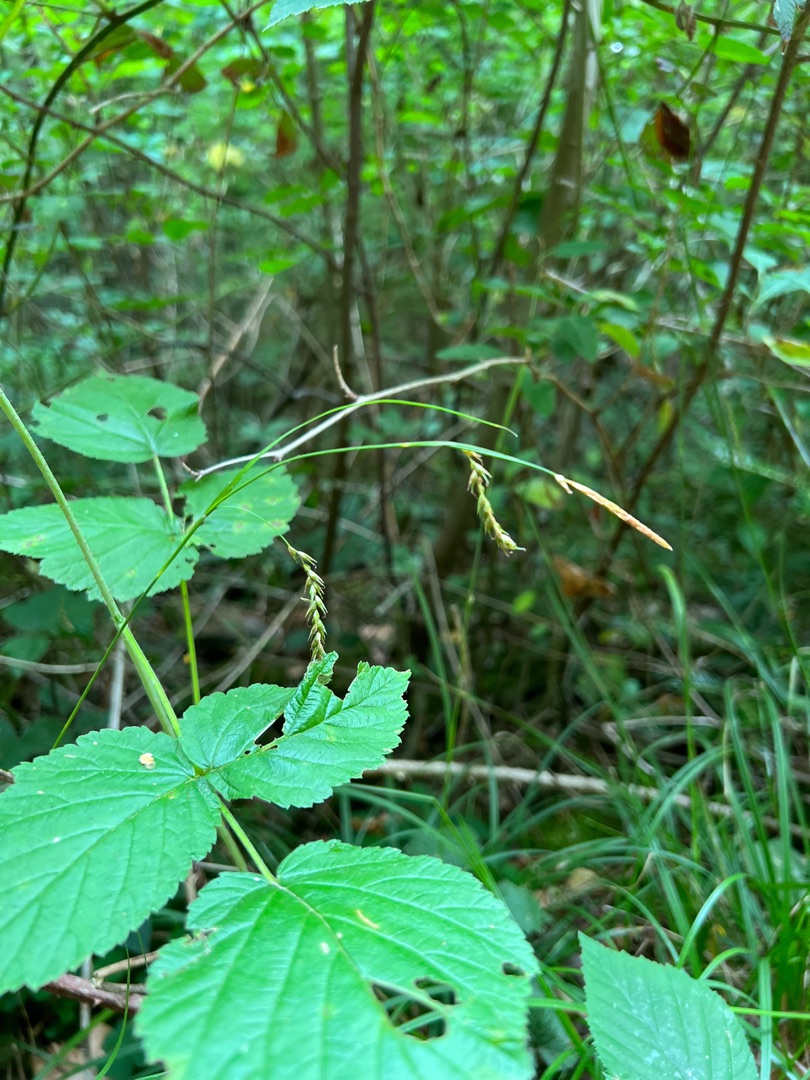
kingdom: Plantae
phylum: Tracheophyta
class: Liliopsida
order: Poales
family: Cyperaceae
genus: Carex
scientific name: Carex sylvatica
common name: Skov-star
